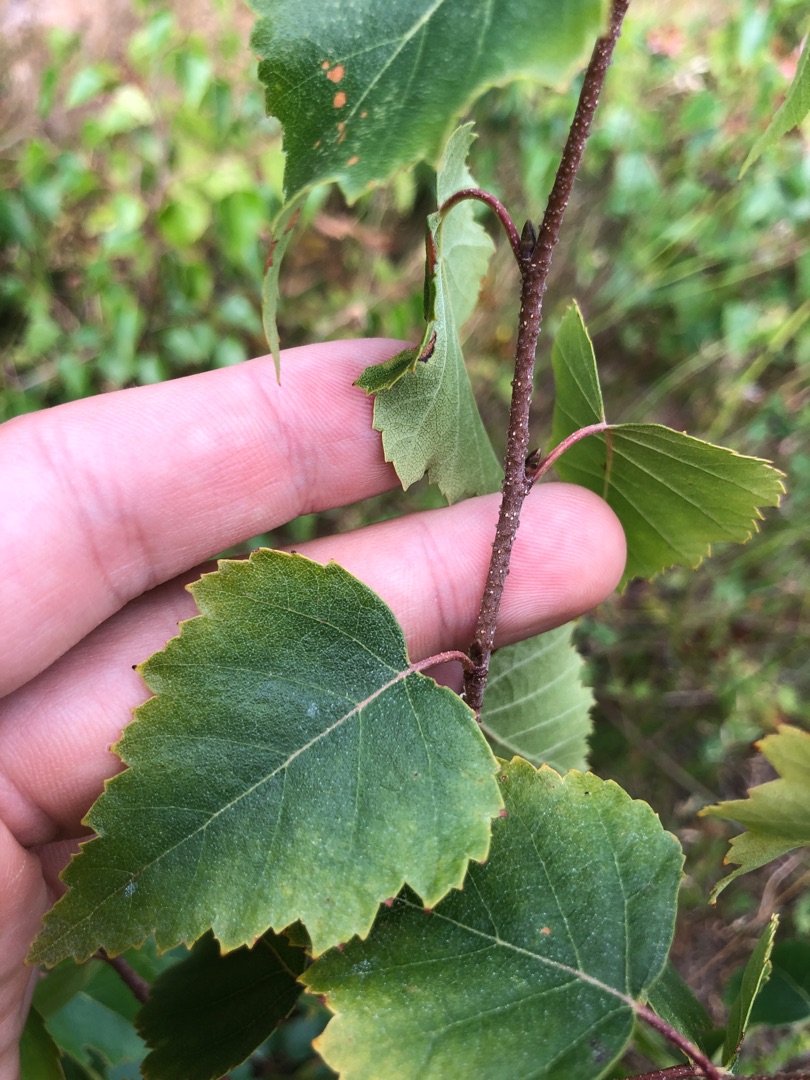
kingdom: Plantae
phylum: Tracheophyta
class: Magnoliopsida
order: Fagales
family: Betulaceae
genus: Betula
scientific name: Betula pendula
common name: Vorte-birk
